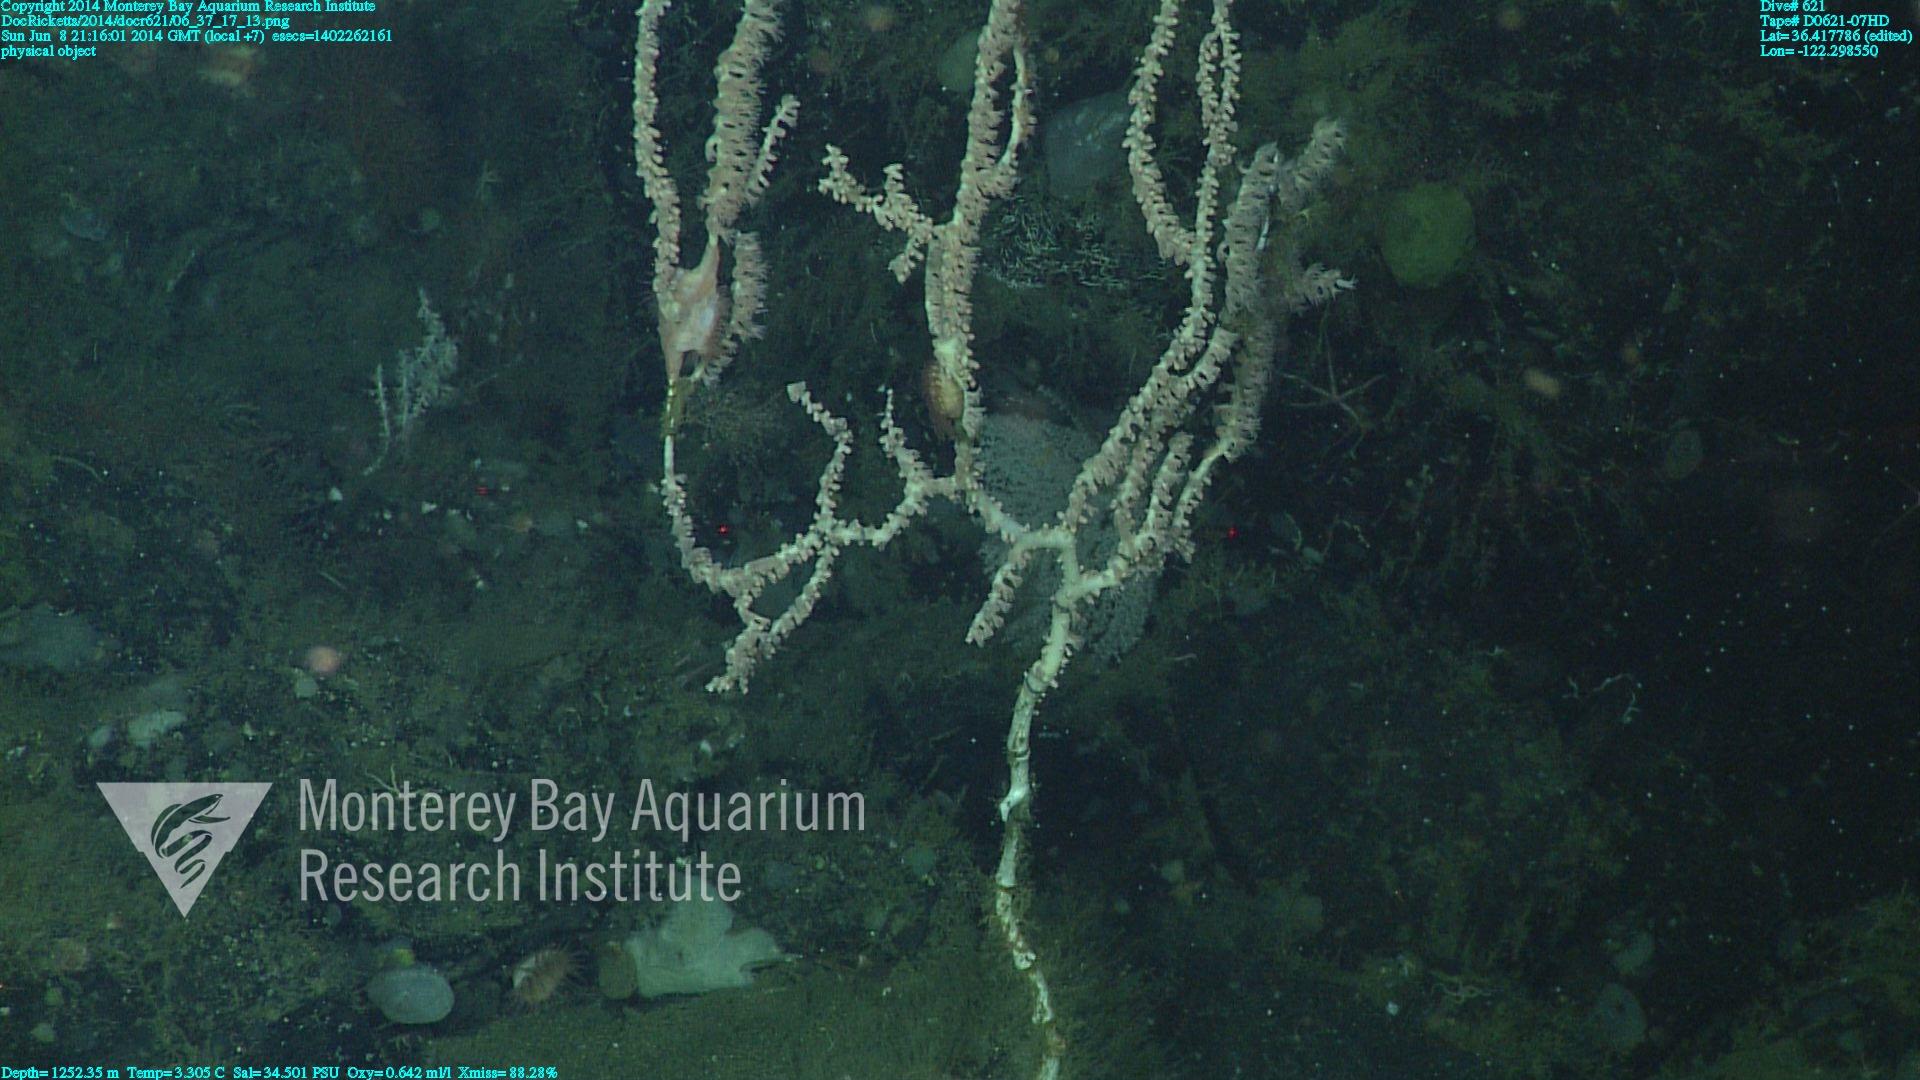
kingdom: Animalia
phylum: Cnidaria
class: Anthozoa
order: Scleralcyonacea
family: Keratoisididae
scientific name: Keratoisididae
